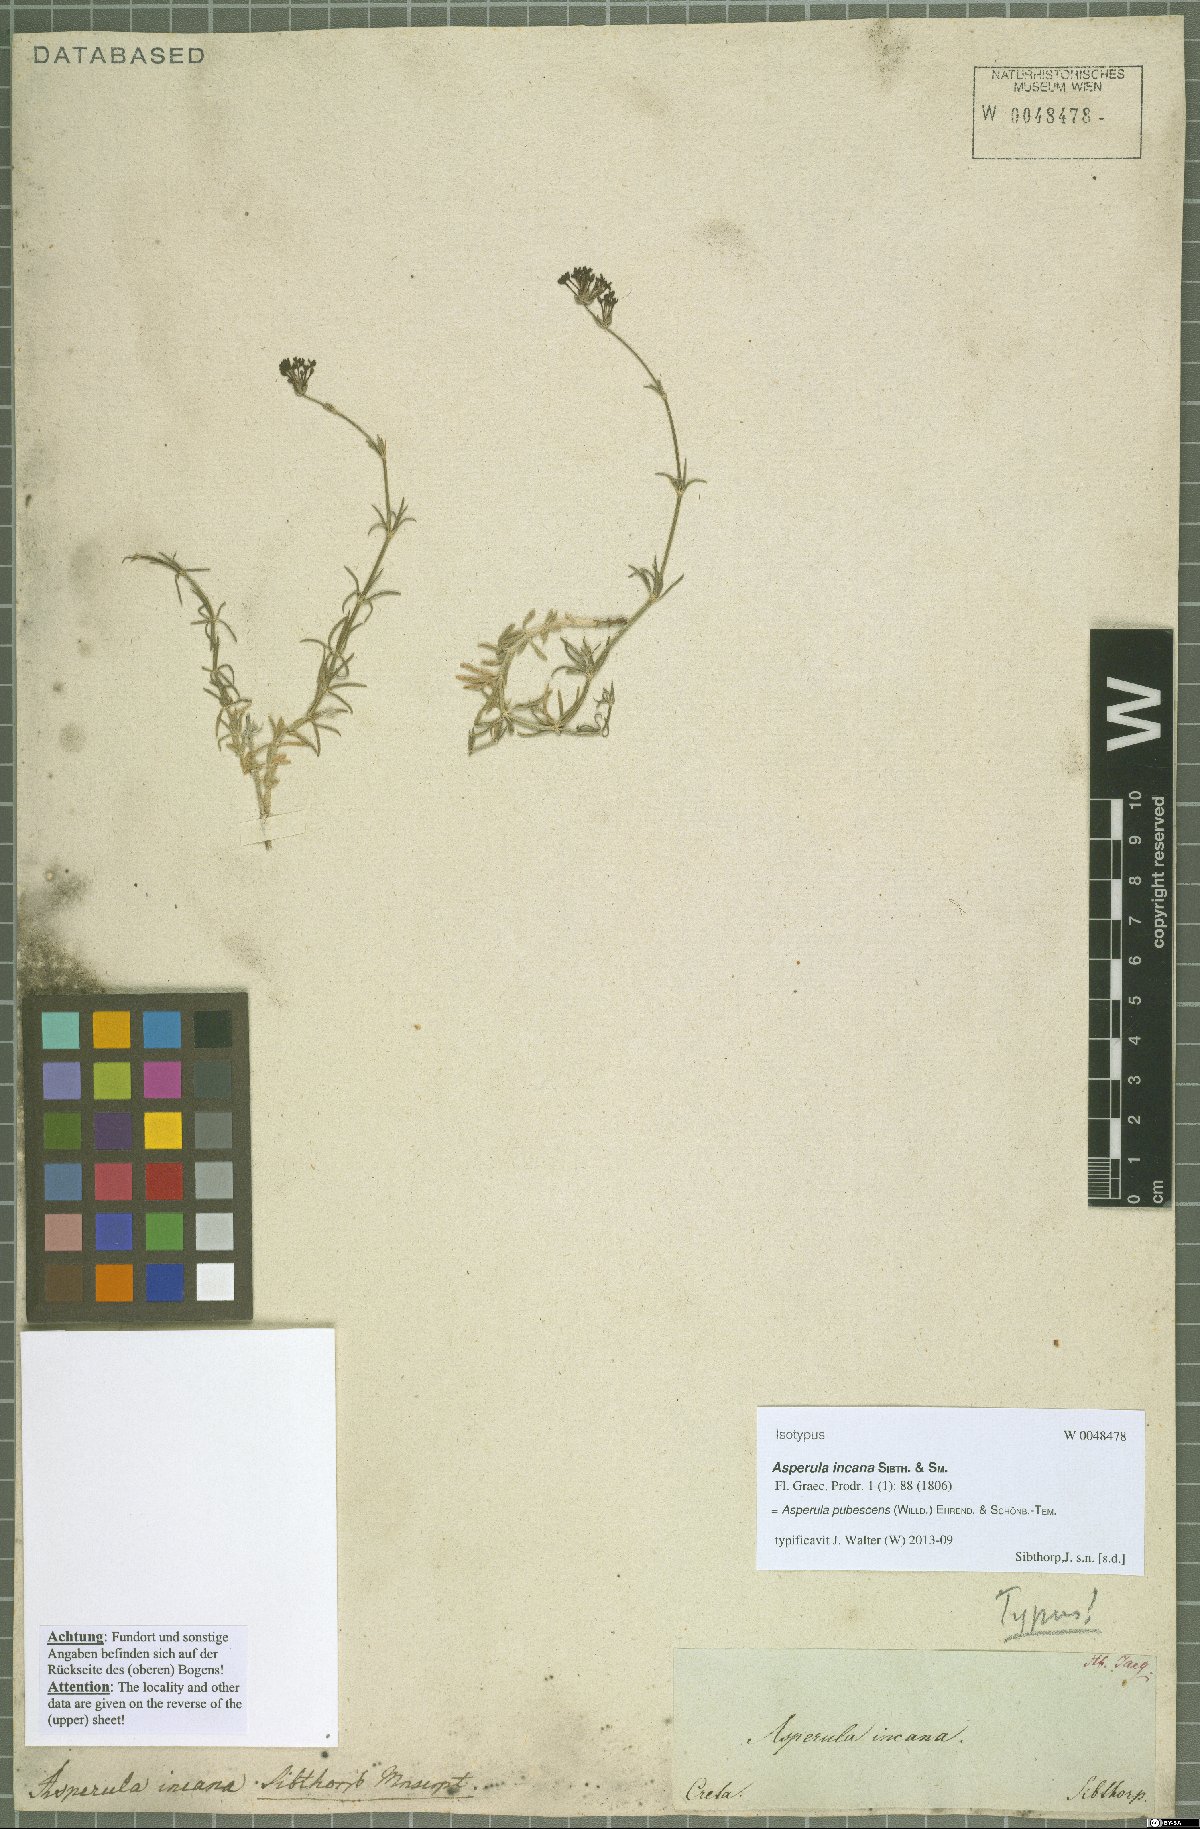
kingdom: Plantae
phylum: Tracheophyta
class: Magnoliopsida
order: Gentianales
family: Rubiaceae
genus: Hexaphylla
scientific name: Hexaphylla pubescens
